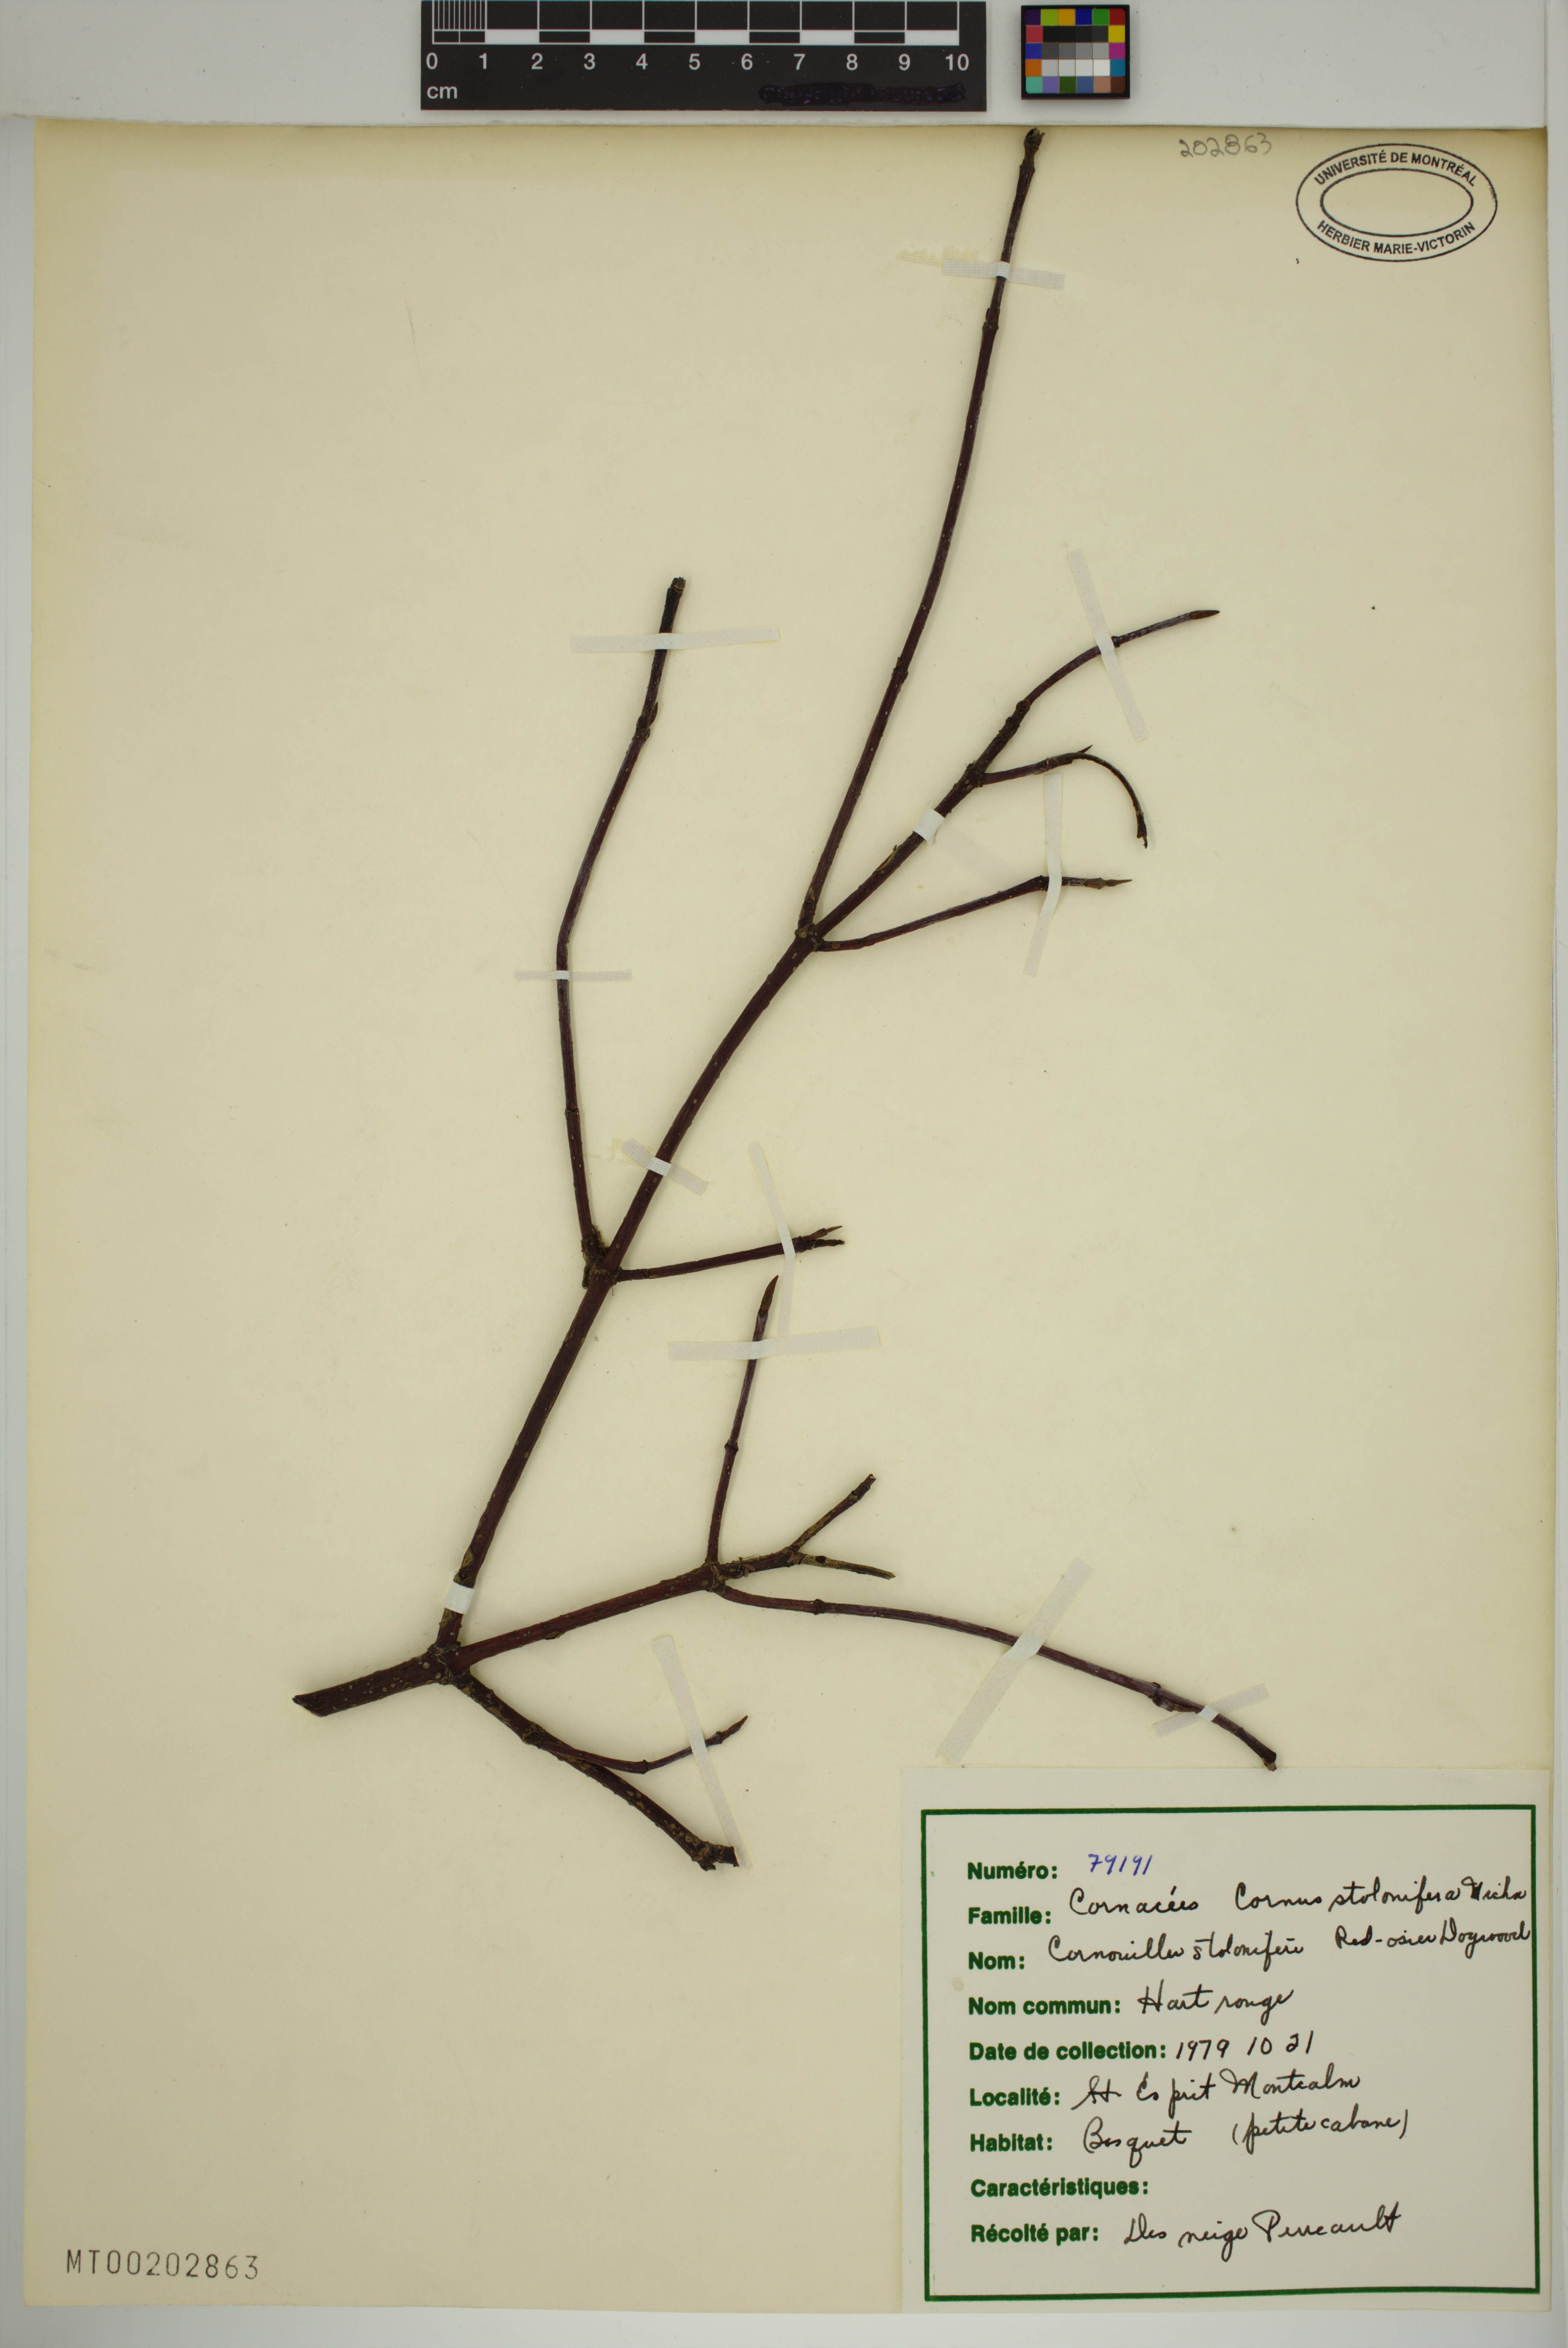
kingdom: Plantae
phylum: Tracheophyta
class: Magnoliopsida
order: Cornales
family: Cornaceae
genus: Cornus
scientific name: Cornus sericea
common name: Red-osier dogwood
